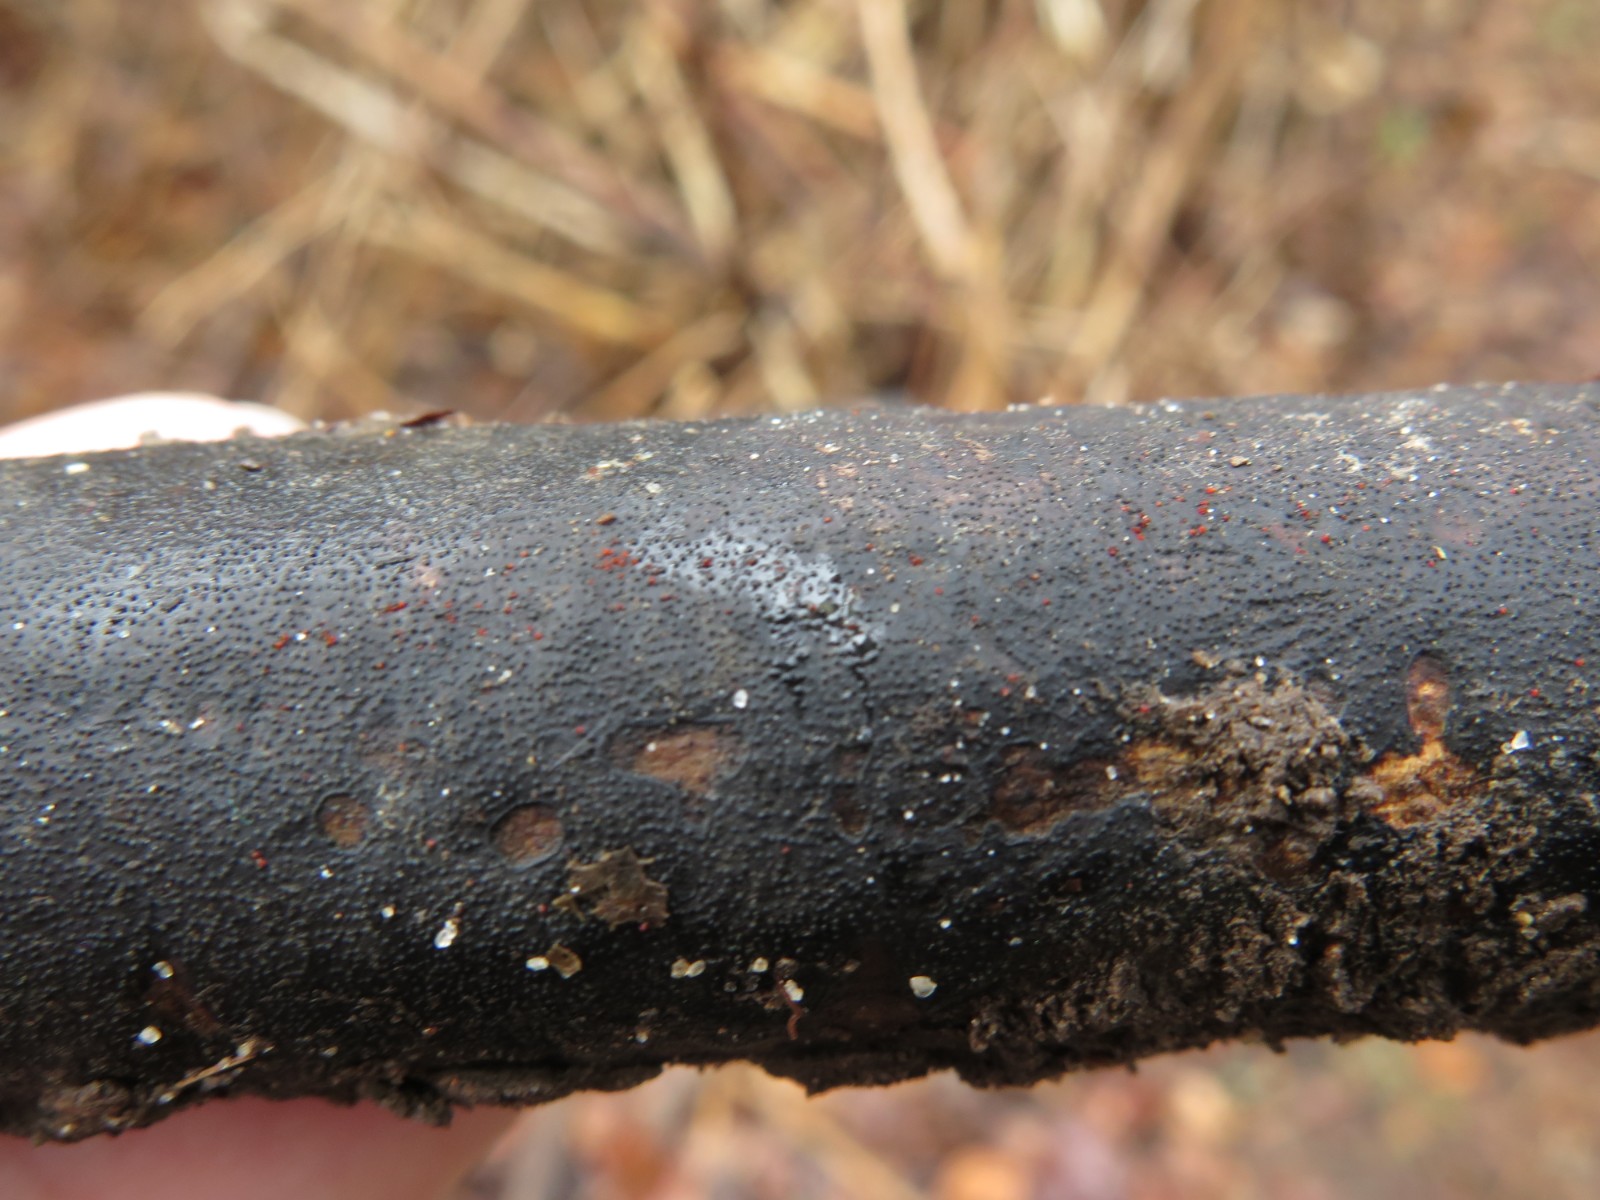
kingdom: Fungi
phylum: Ascomycota
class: Sordariomycetes
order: Hypocreales
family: Nectriaceae
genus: Dialonectria
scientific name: Dialonectria episphaeria
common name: kulskorpe-cinnobersvamp
